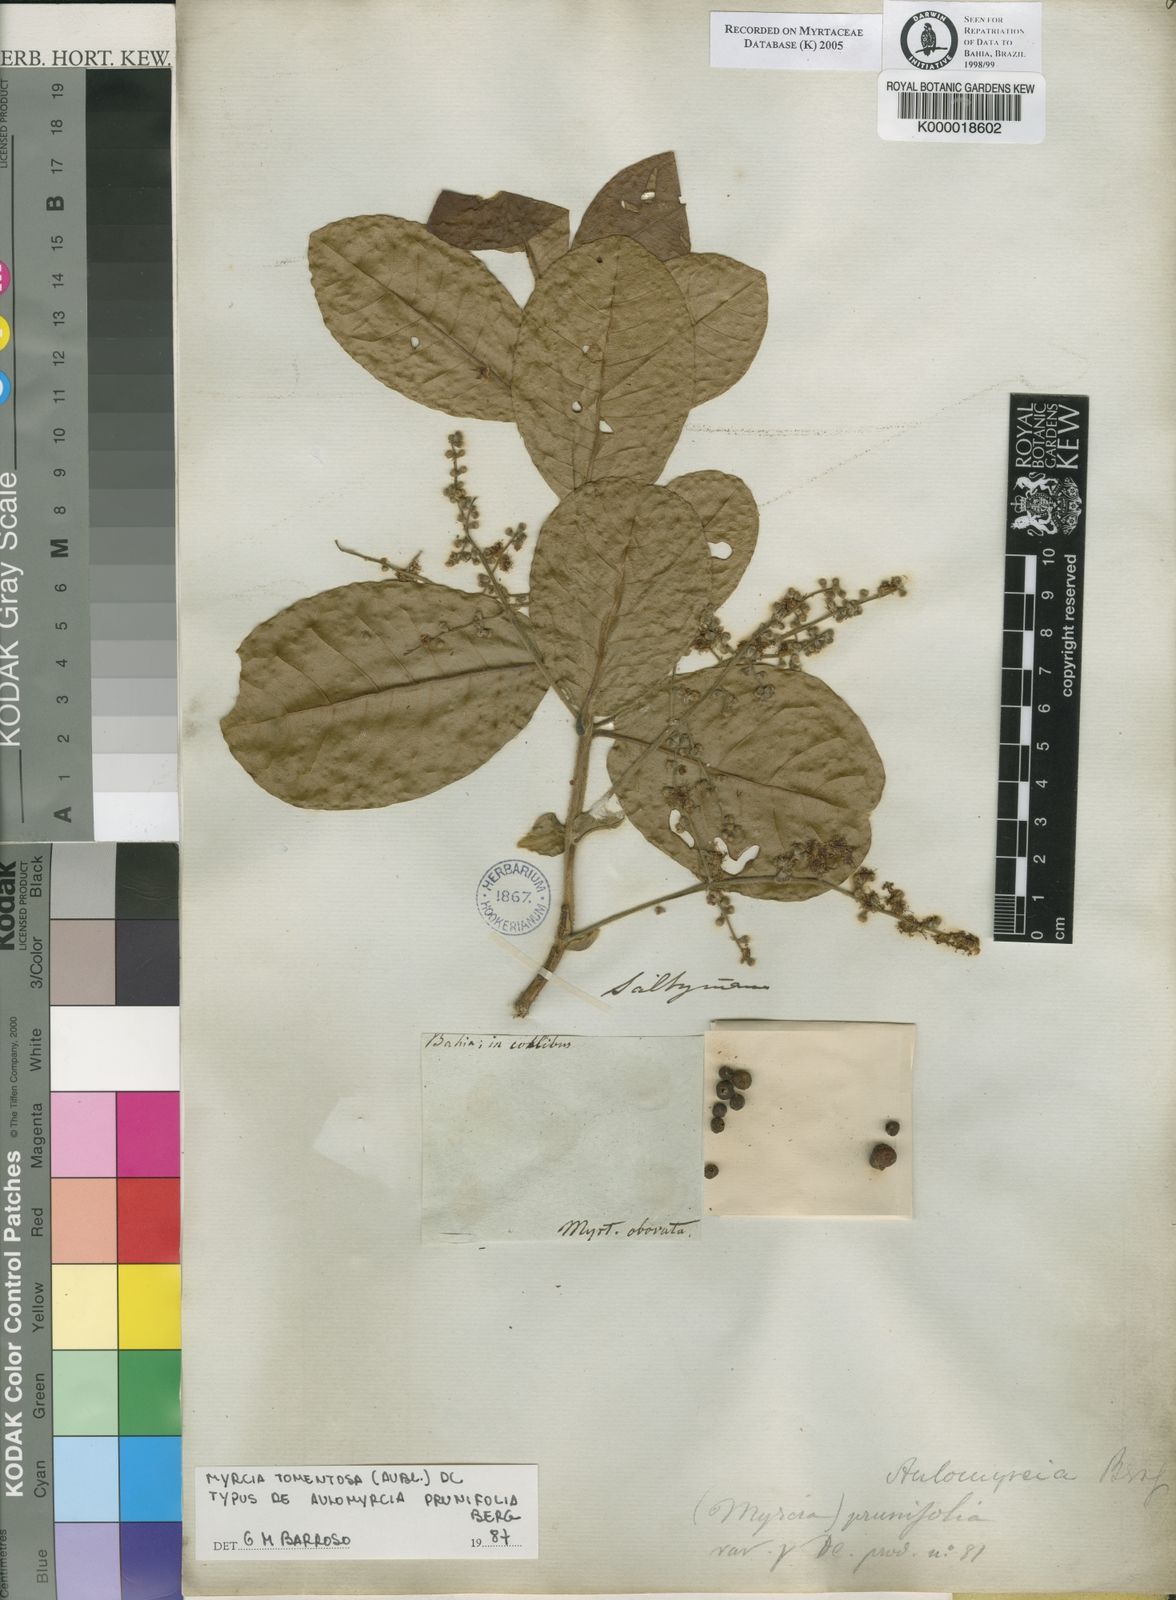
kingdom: Plantae
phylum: Tracheophyta
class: Magnoliopsida
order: Myrtales
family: Myrtaceae
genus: Myrcia
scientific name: Myrcia tomentosa
